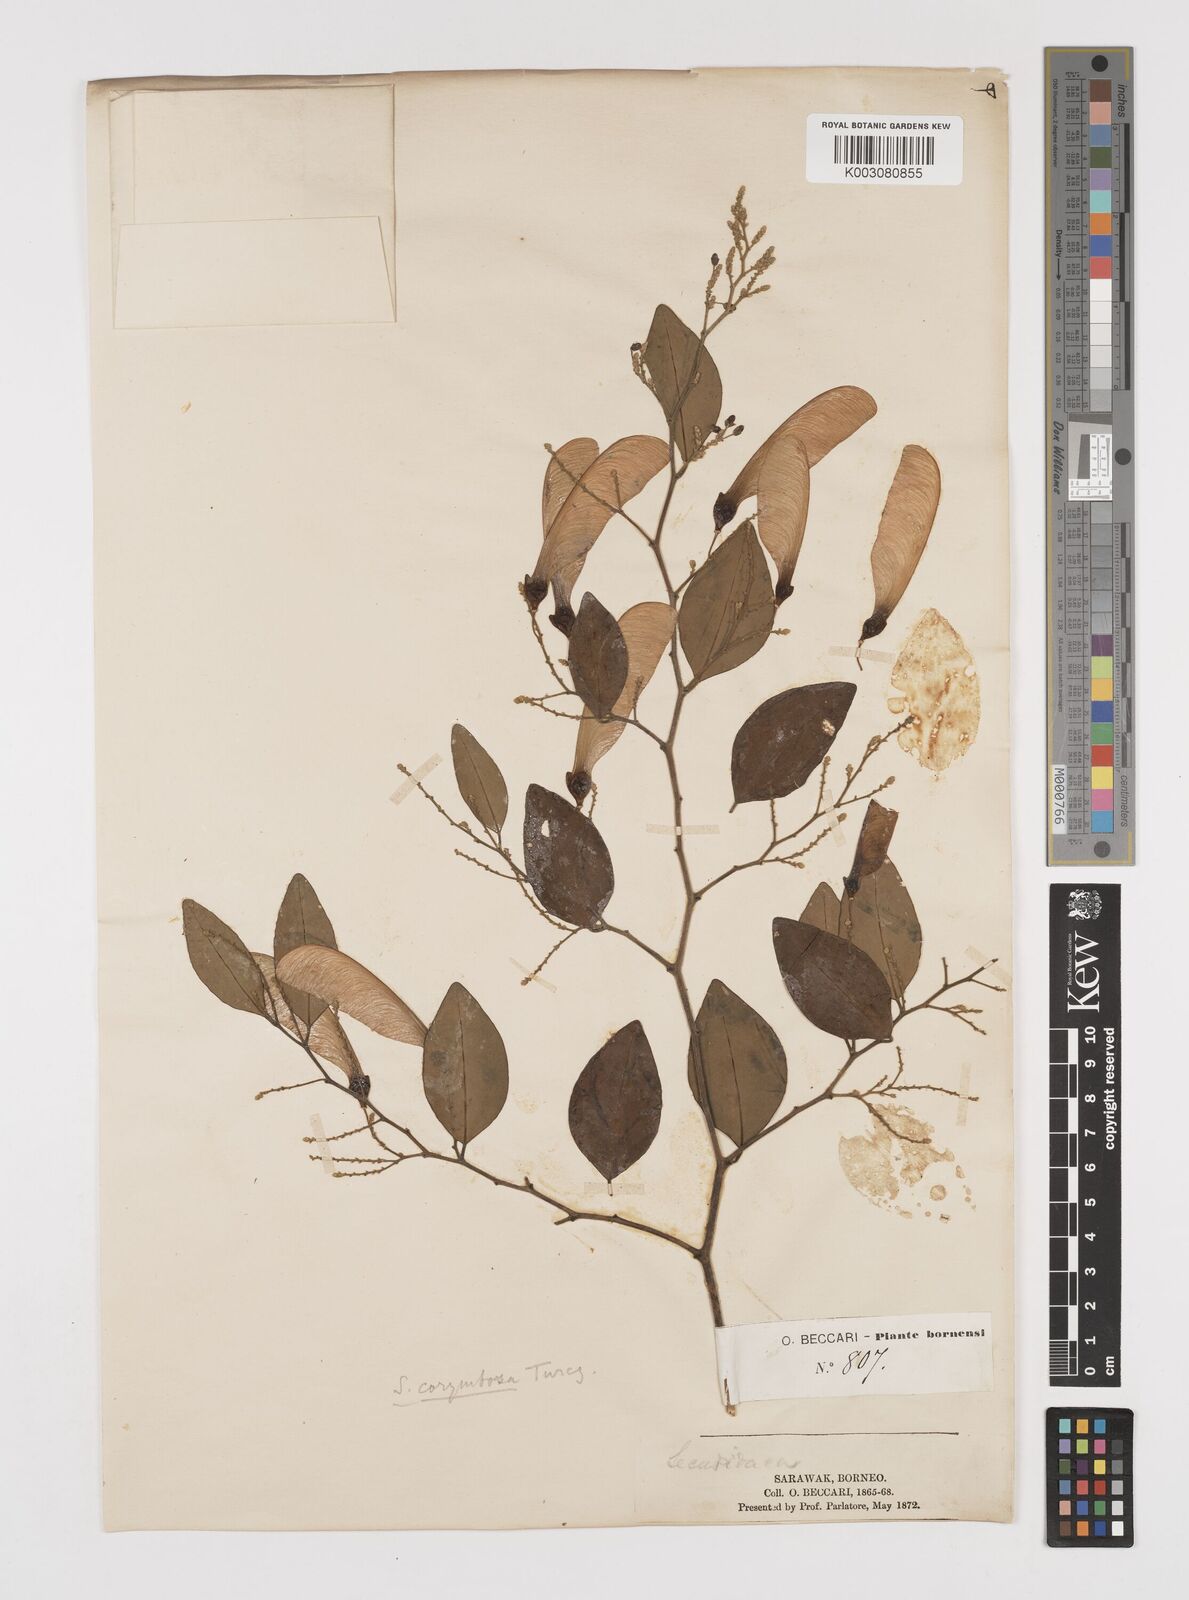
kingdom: Plantae
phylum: Tracheophyta
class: Magnoliopsida
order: Fabales
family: Polygalaceae
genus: Securidaca
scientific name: Securidaca inappendiculata
